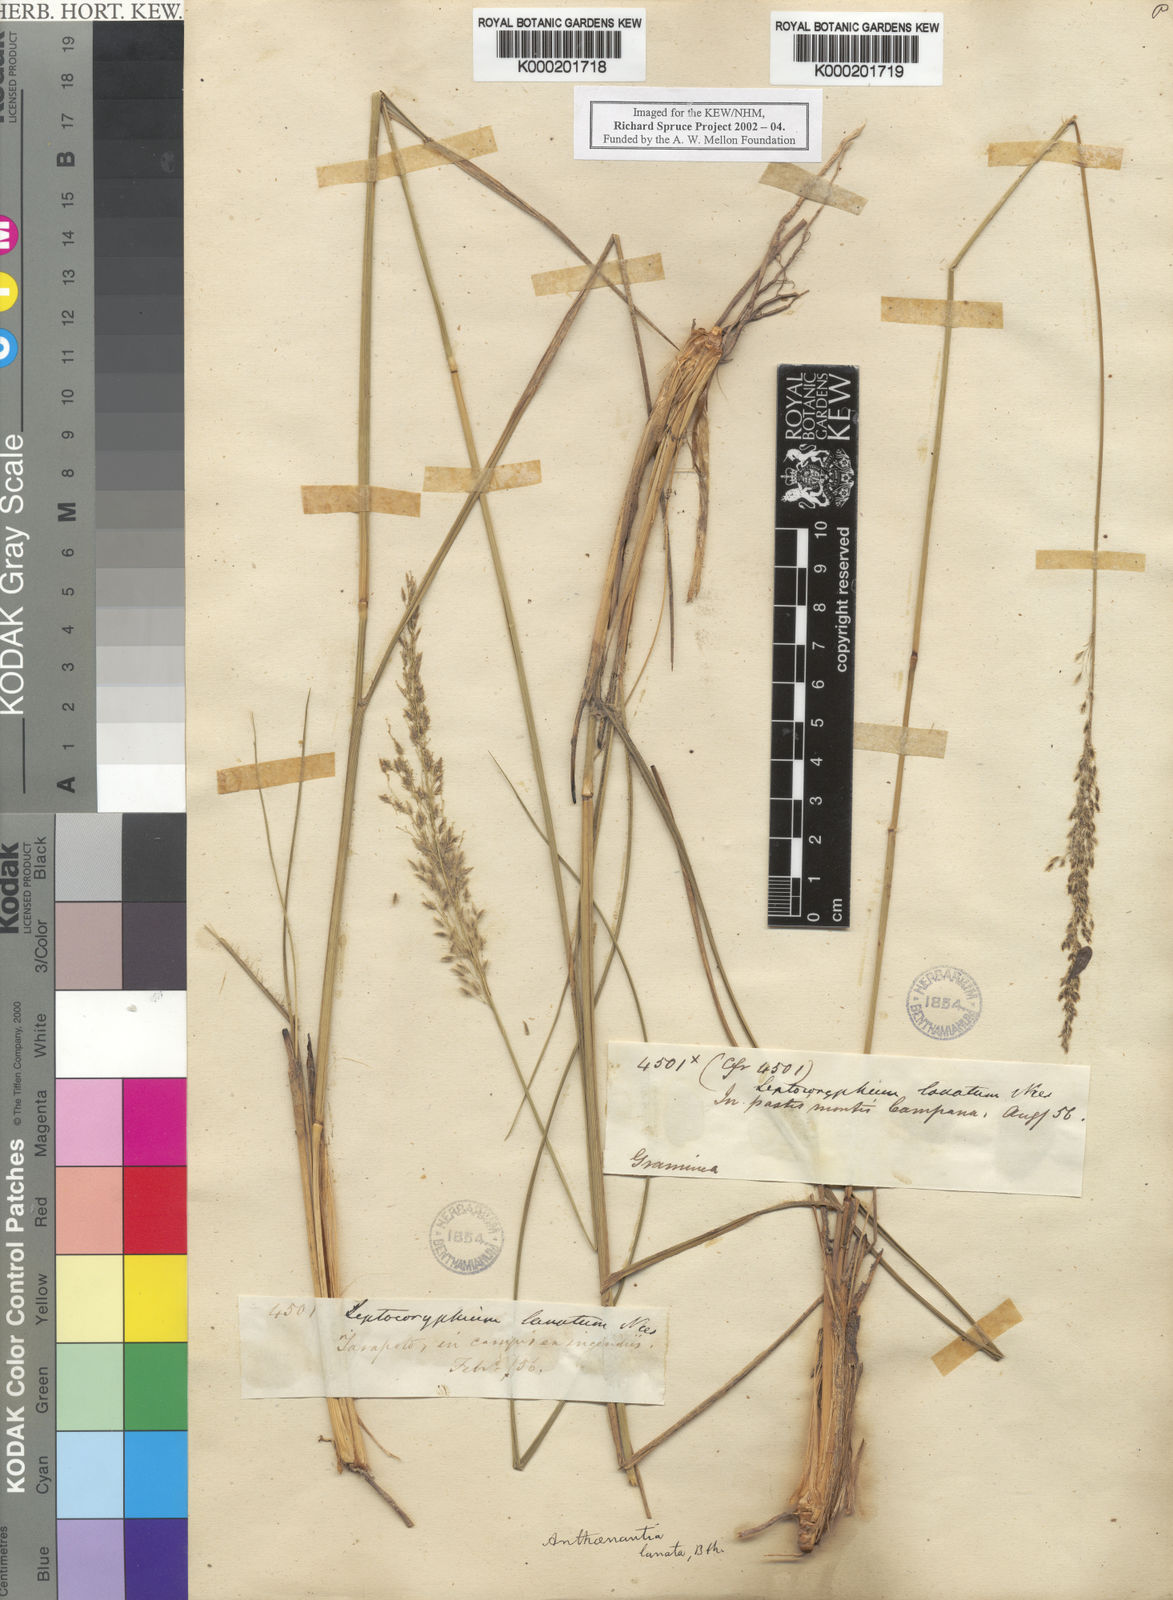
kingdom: Plantae
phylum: Tracheophyta
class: Liliopsida
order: Poales
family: Poaceae
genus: Anthenantia
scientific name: Anthenantia lanata
